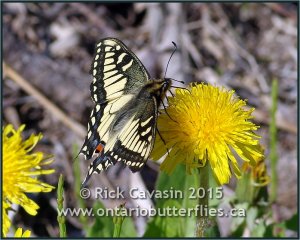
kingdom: Animalia
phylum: Arthropoda
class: Insecta
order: Lepidoptera
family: Papilionidae
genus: Papilio
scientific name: Papilio machaon
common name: Old World Swallowtail
